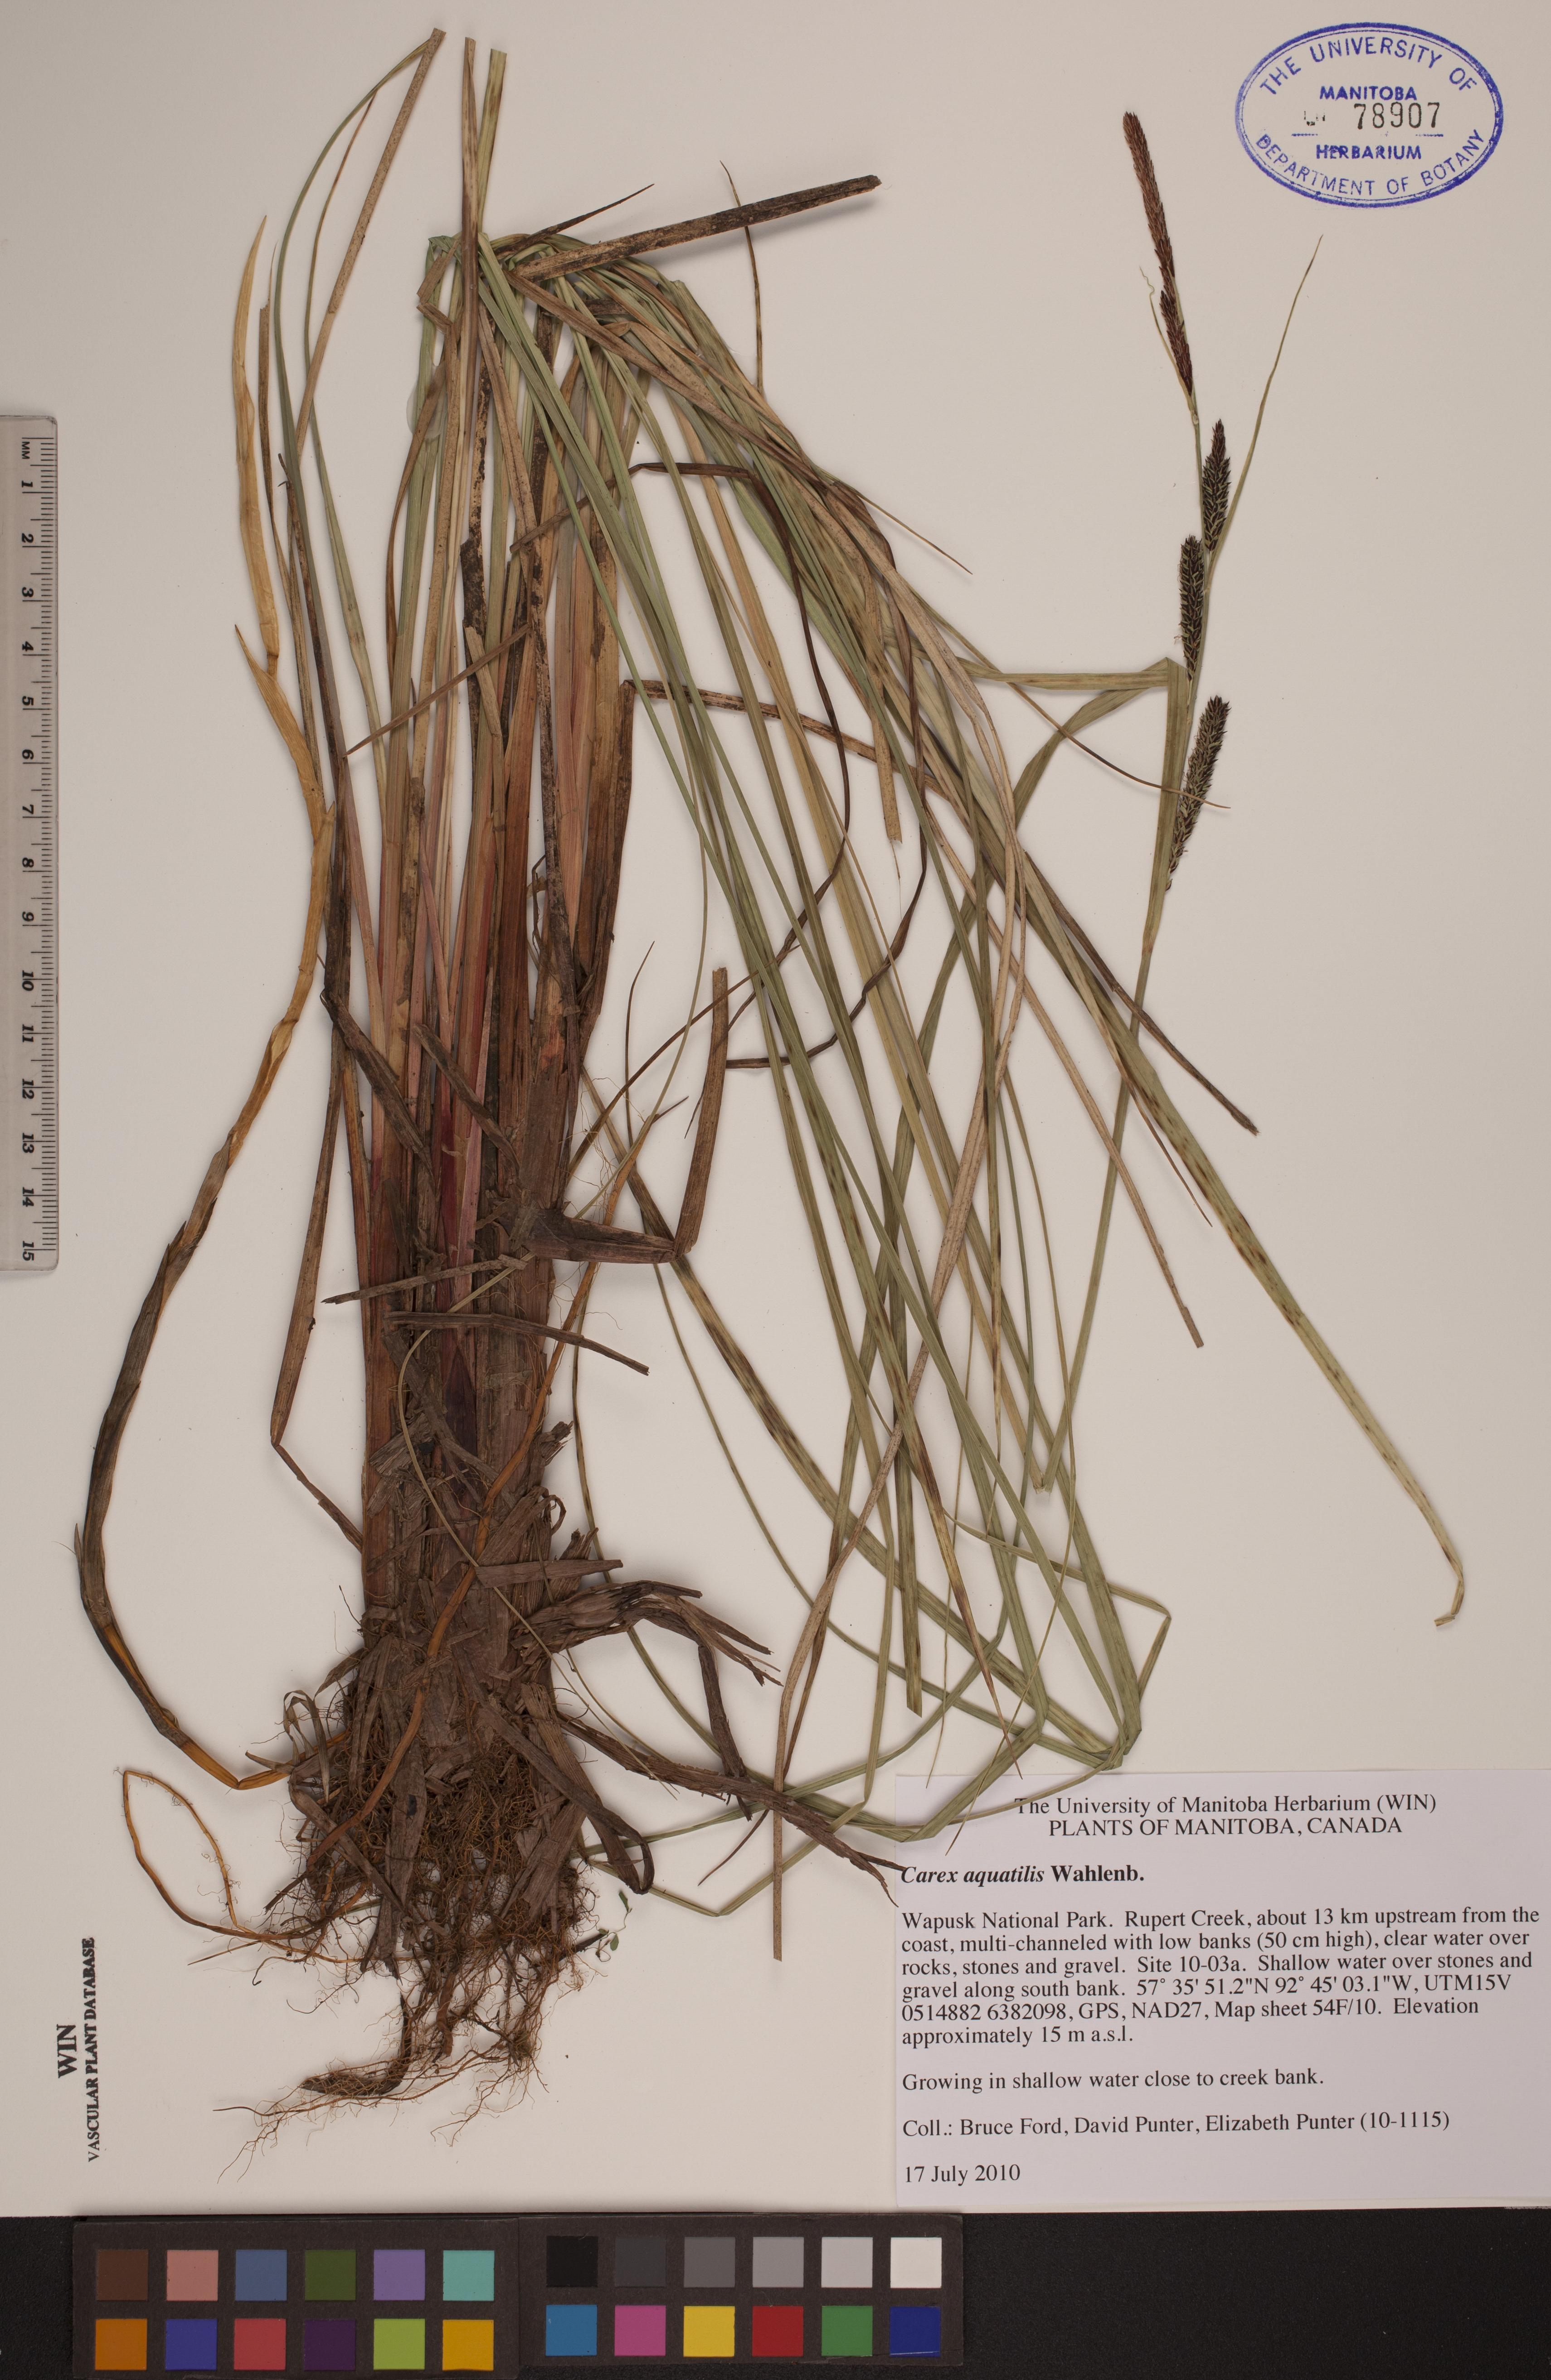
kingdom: Plantae
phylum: Tracheophyta
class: Liliopsida
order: Poales
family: Cyperaceae
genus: Carex
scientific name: Carex aquatilis
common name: Water sedge
